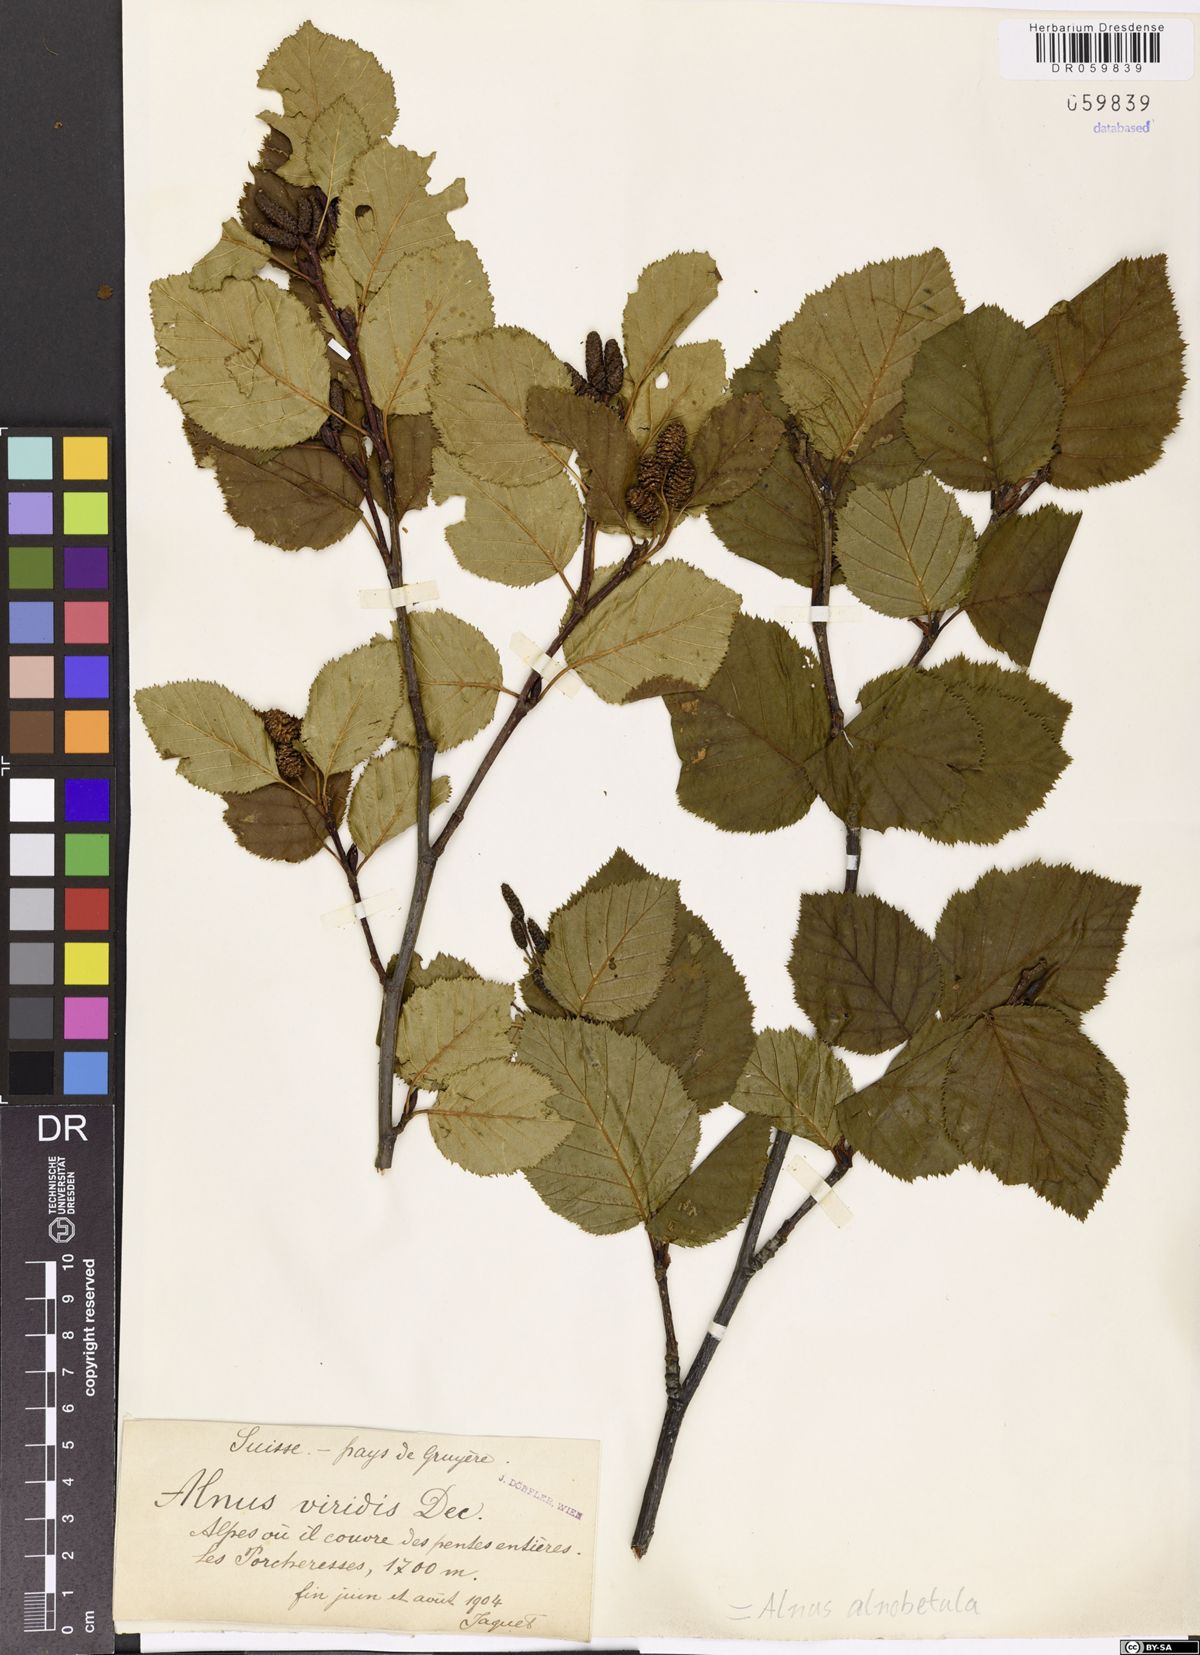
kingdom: Plantae
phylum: Tracheophyta
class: Magnoliopsida
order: Fagales
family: Betulaceae
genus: Alnus
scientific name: Alnus alnobetula
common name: Green alder
